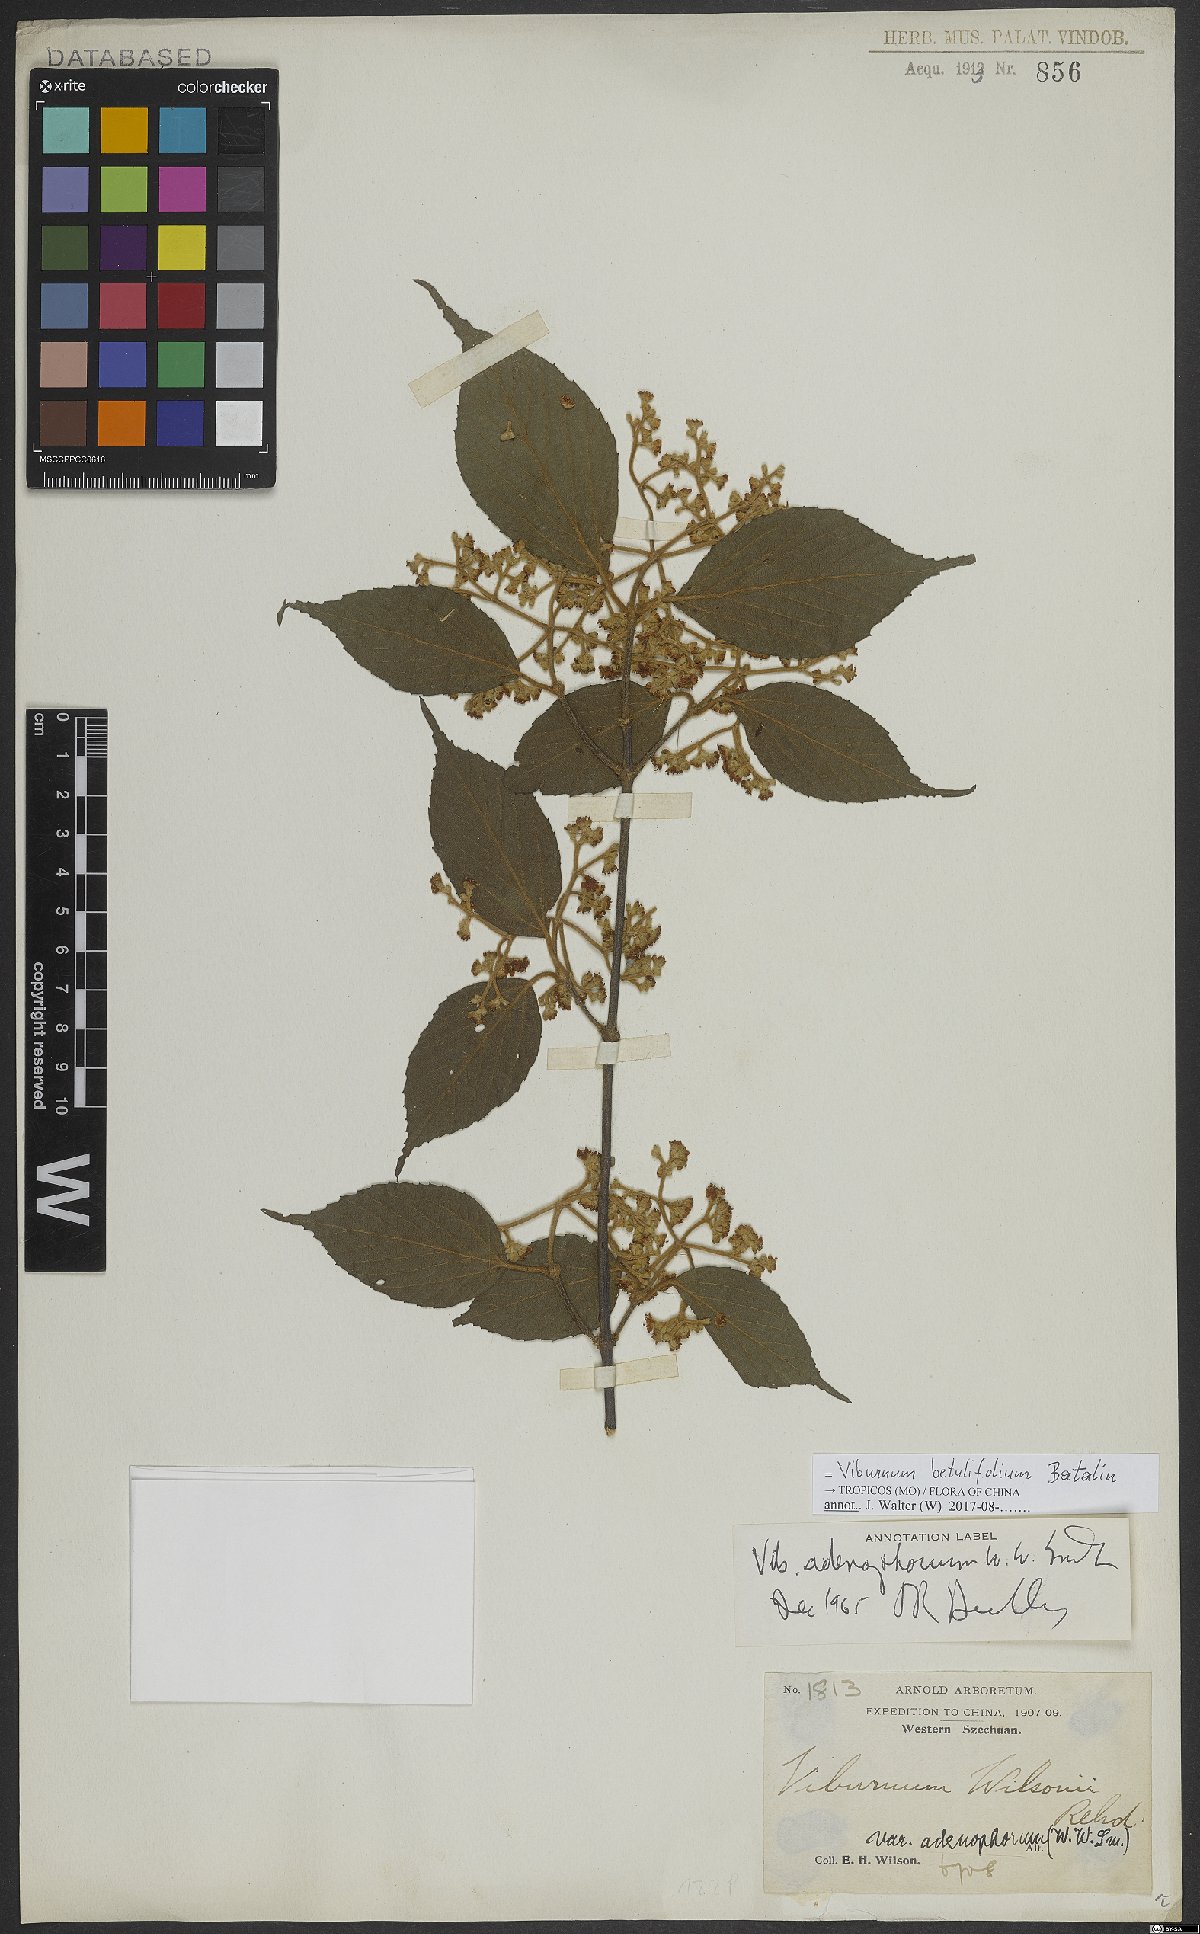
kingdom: Plantae
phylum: Tracheophyta
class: Magnoliopsida
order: Dipsacales
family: Viburnaceae
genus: Viburnum
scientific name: Viburnum betulifolium
